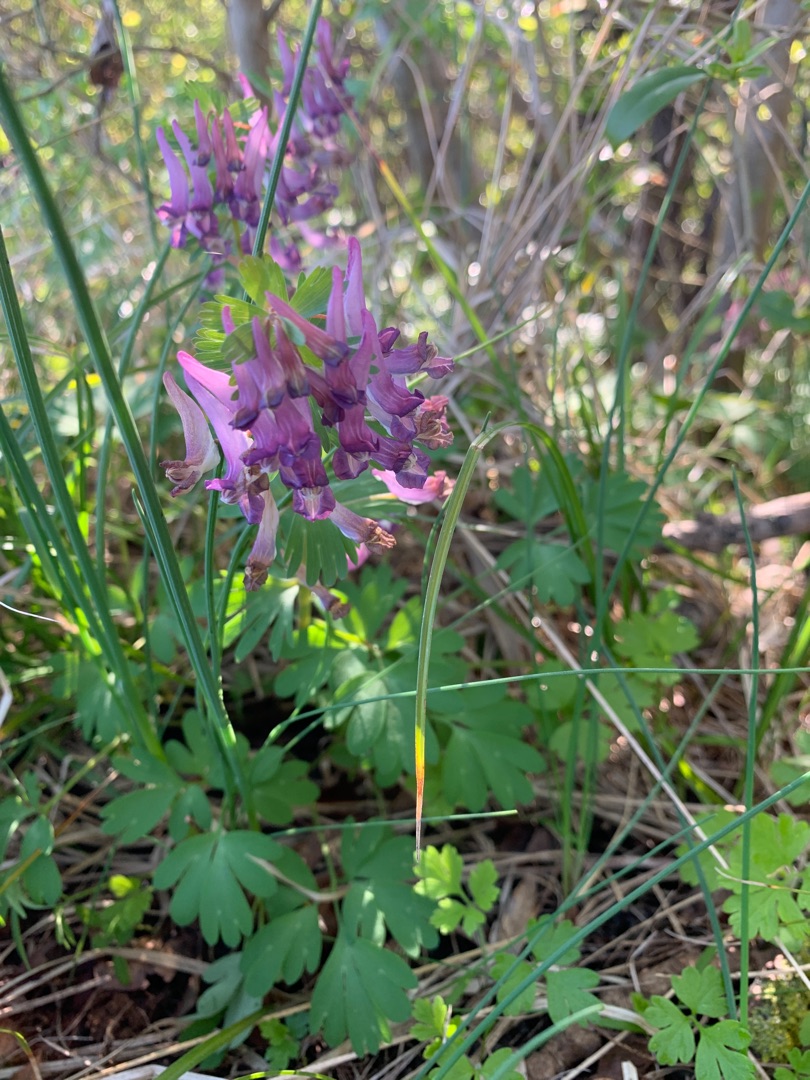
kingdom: Plantae
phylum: Tracheophyta
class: Magnoliopsida
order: Ranunculales
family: Papaveraceae
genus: Corydalis
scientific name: Corydalis solida
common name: Langstilket lærkespore
